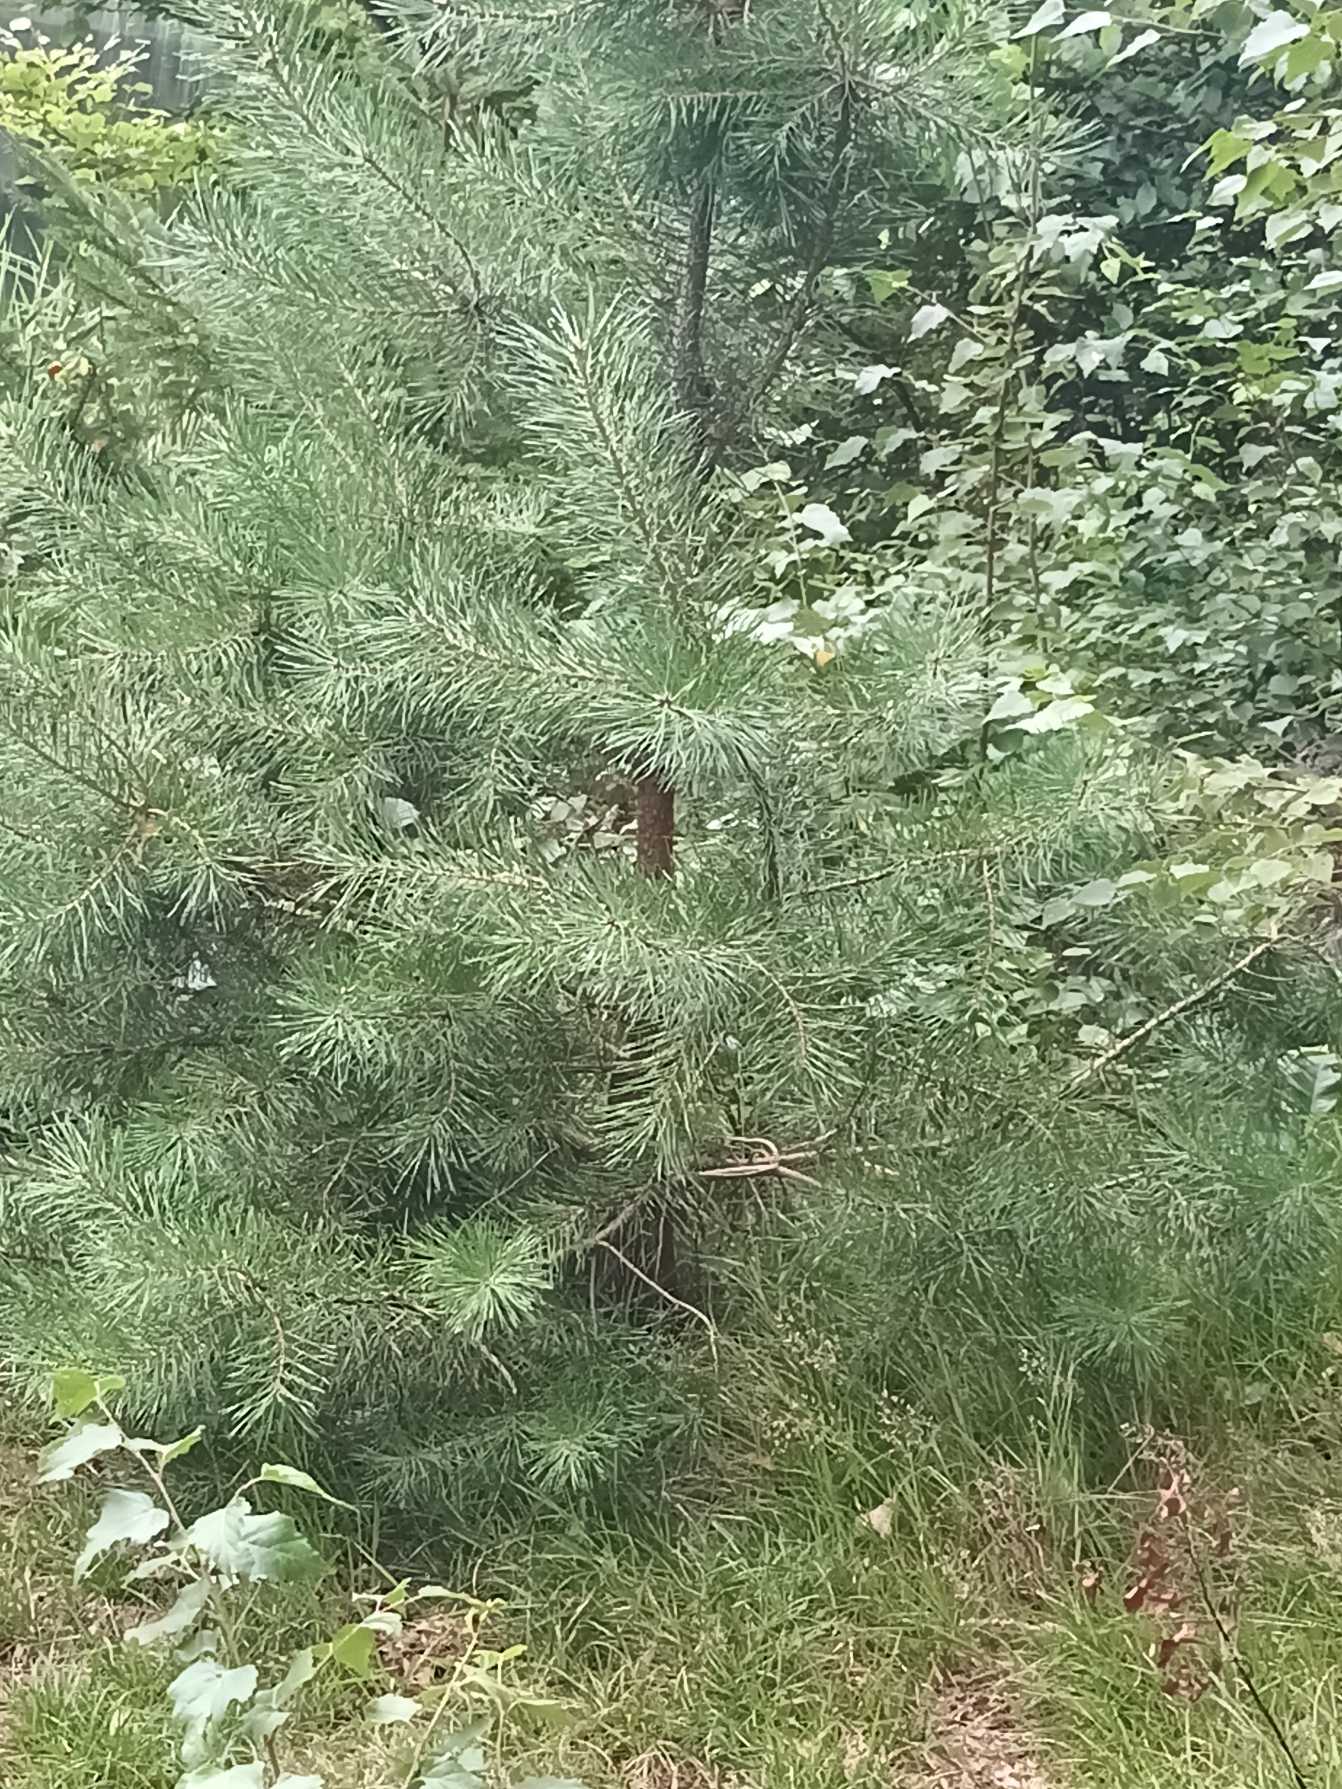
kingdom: Plantae
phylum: Tracheophyta
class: Pinopsida
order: Pinales
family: Pinaceae
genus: Pinus
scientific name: Pinus sylvestris
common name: Skov-fyr
